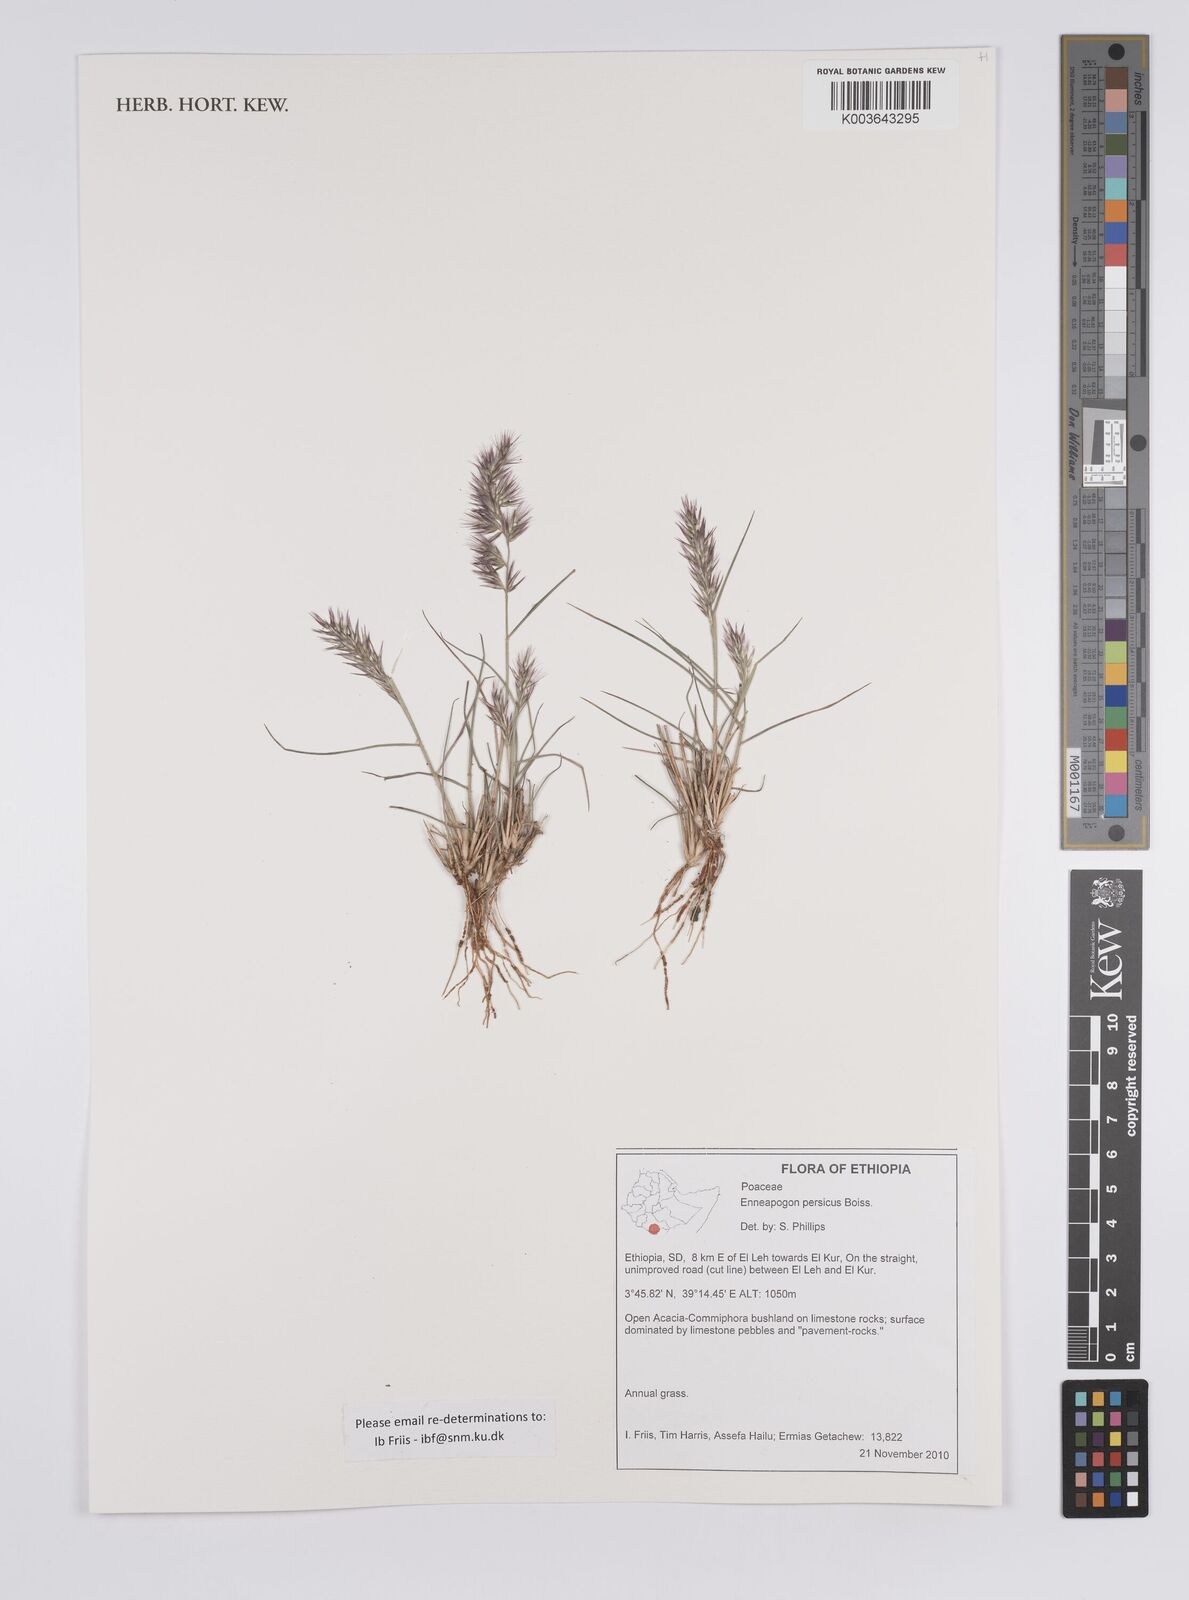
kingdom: Plantae
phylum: Tracheophyta
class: Liliopsida
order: Poales
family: Poaceae
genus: Enneapogon
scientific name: Enneapogon persicus
